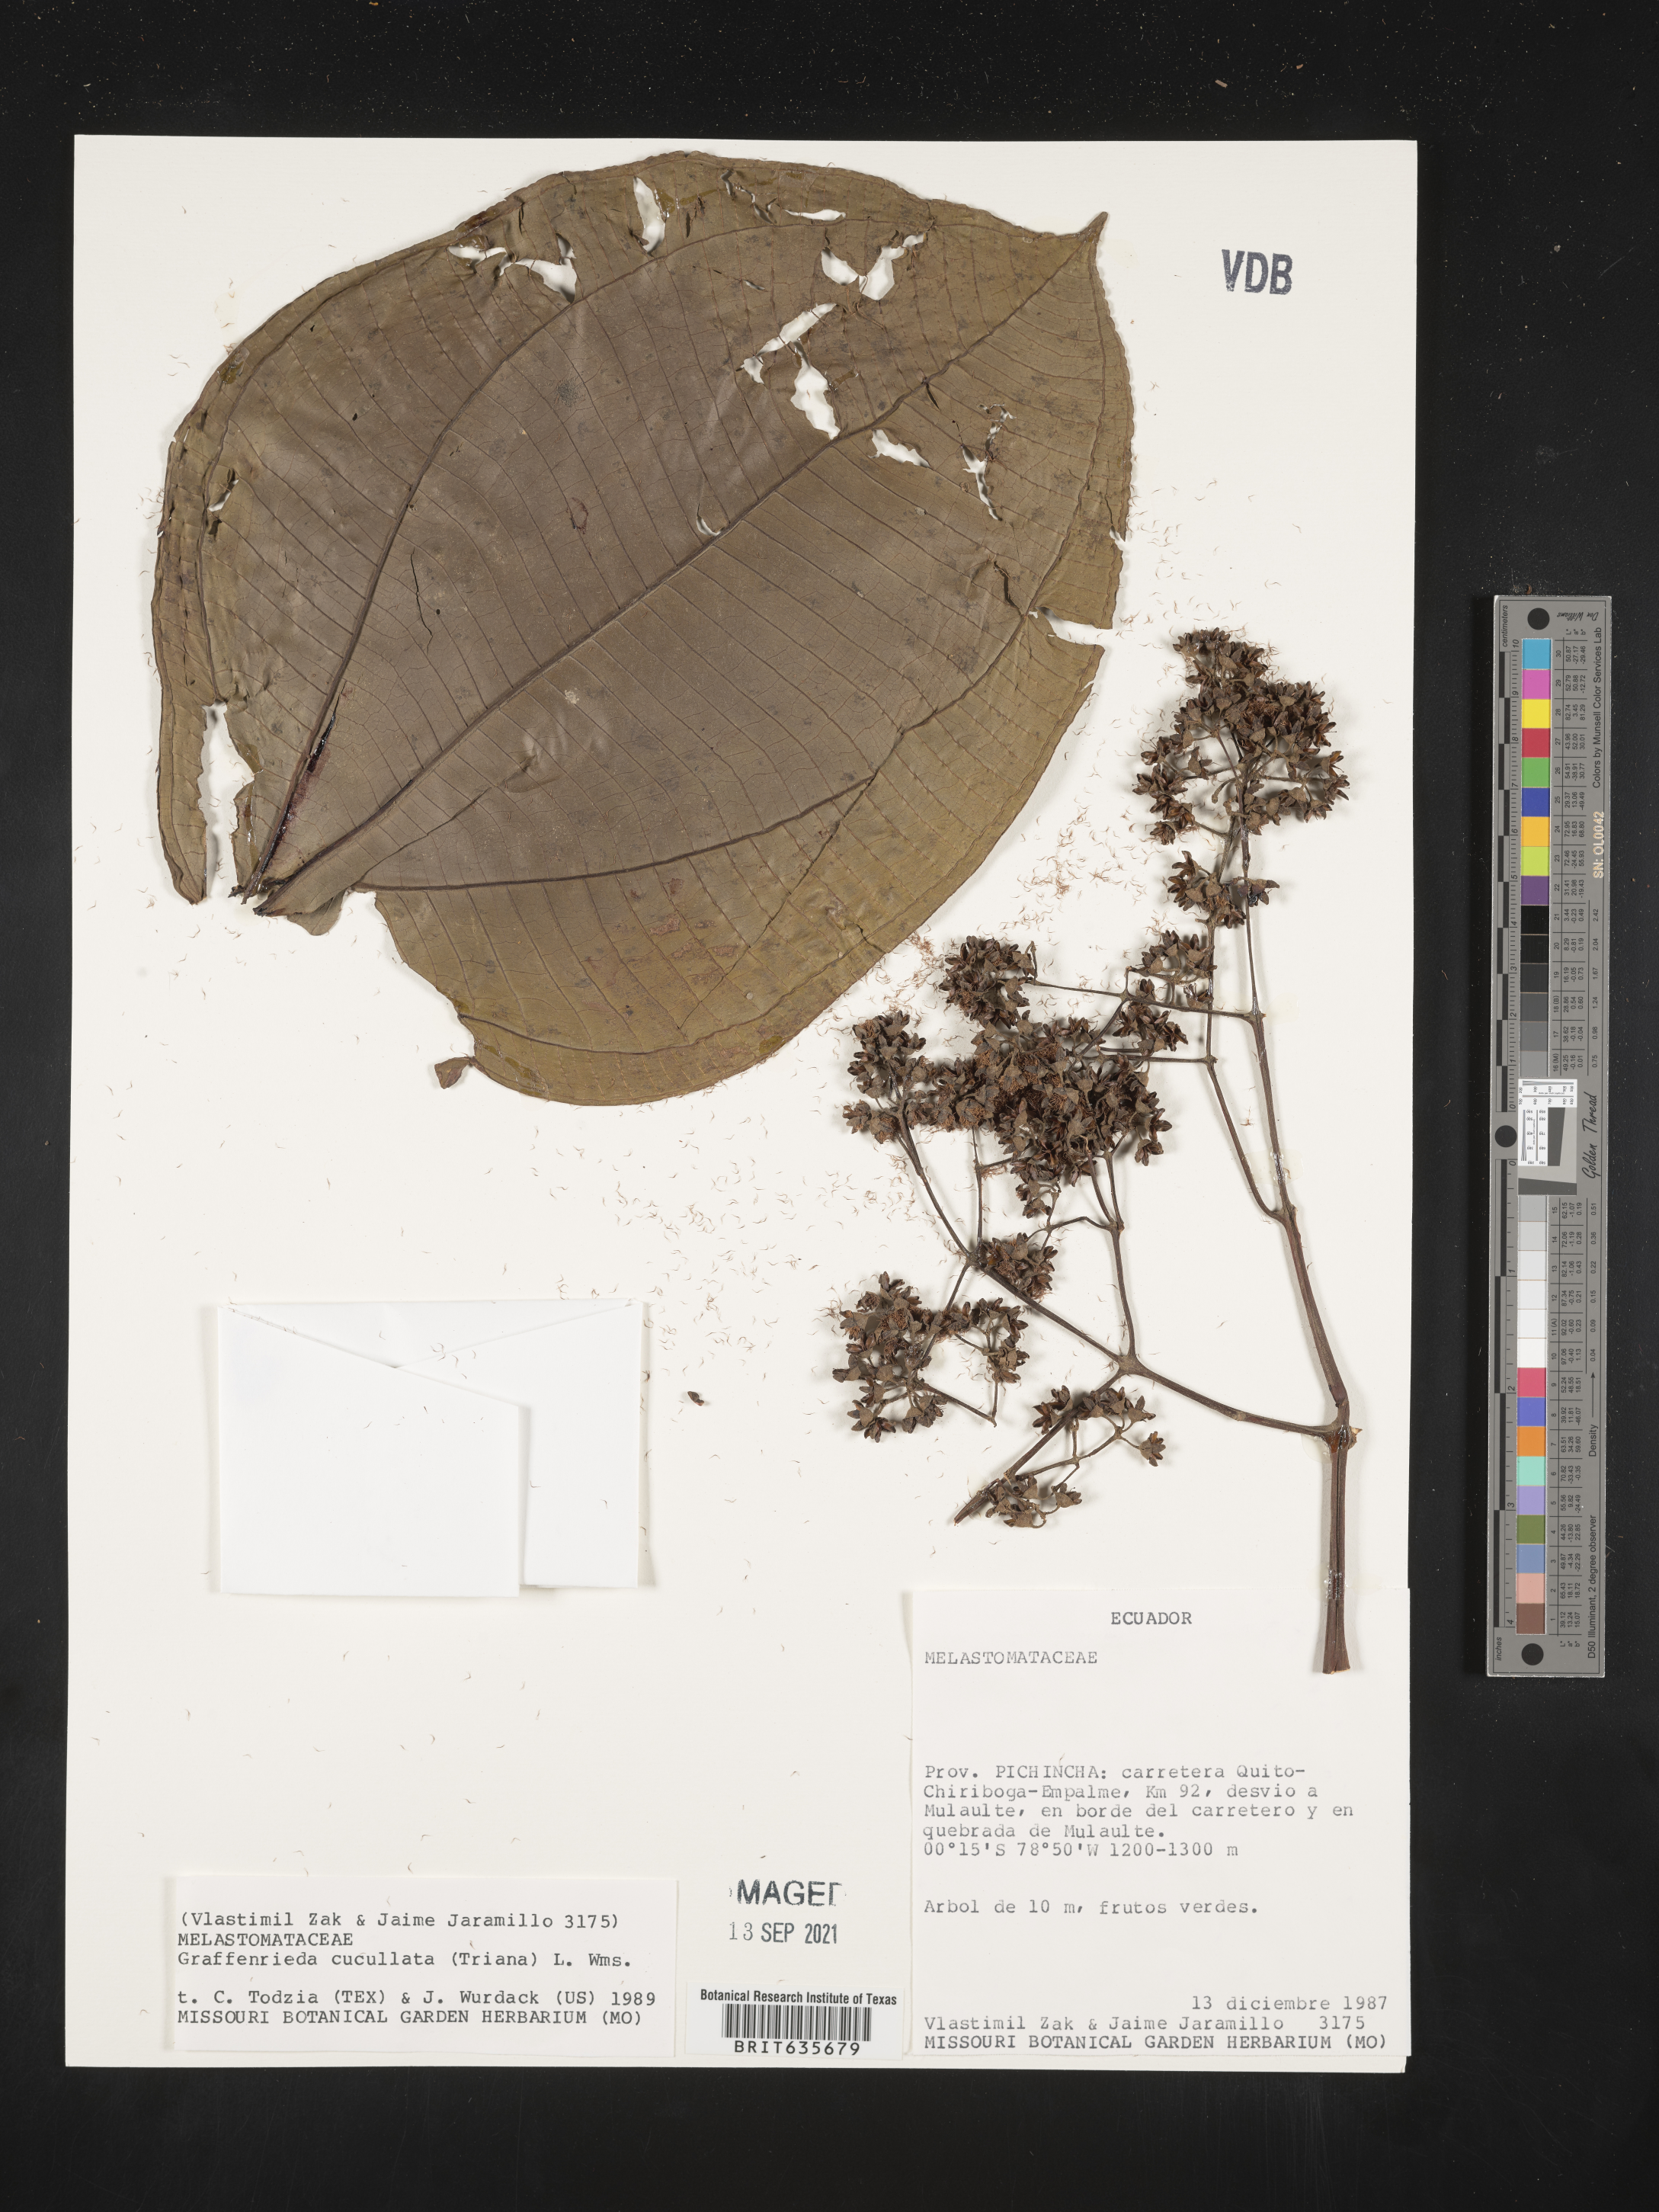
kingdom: Plantae
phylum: Tracheophyta
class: Magnoliopsida
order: Myrtales
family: Melastomataceae
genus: Graffenrieda
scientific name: Graffenrieda
